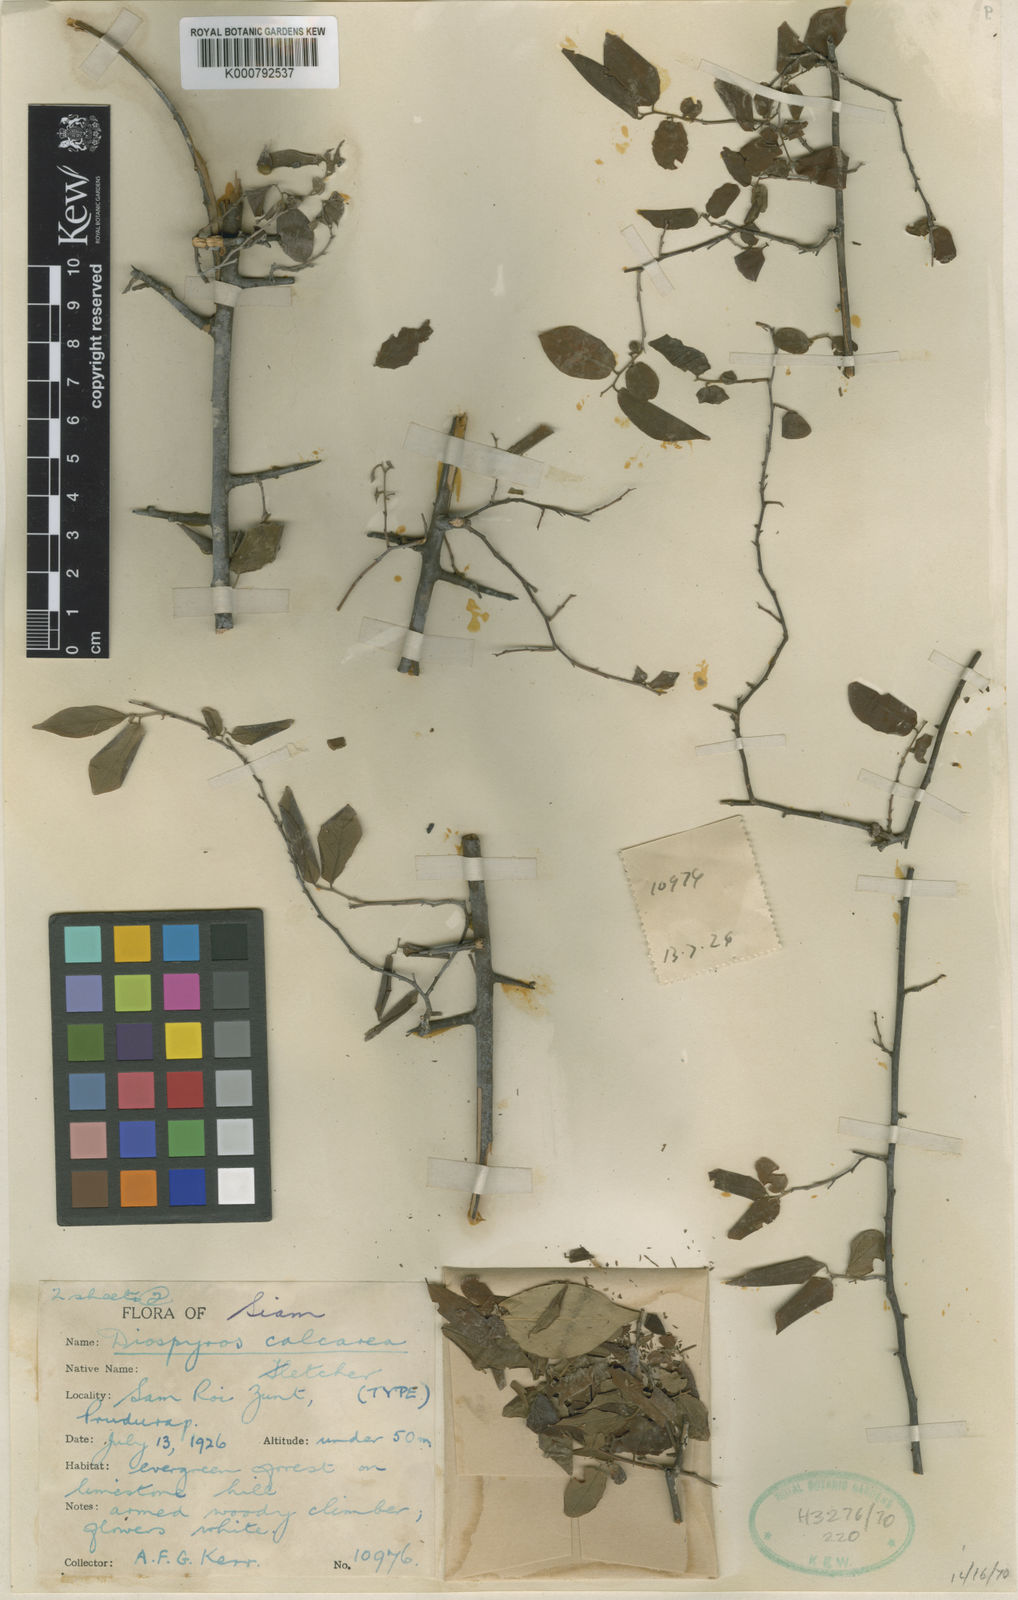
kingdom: Plantae
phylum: Tracheophyta
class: Magnoliopsida
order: Ericales
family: Ebenaceae
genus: Diospyros
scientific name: Diospyros montana
